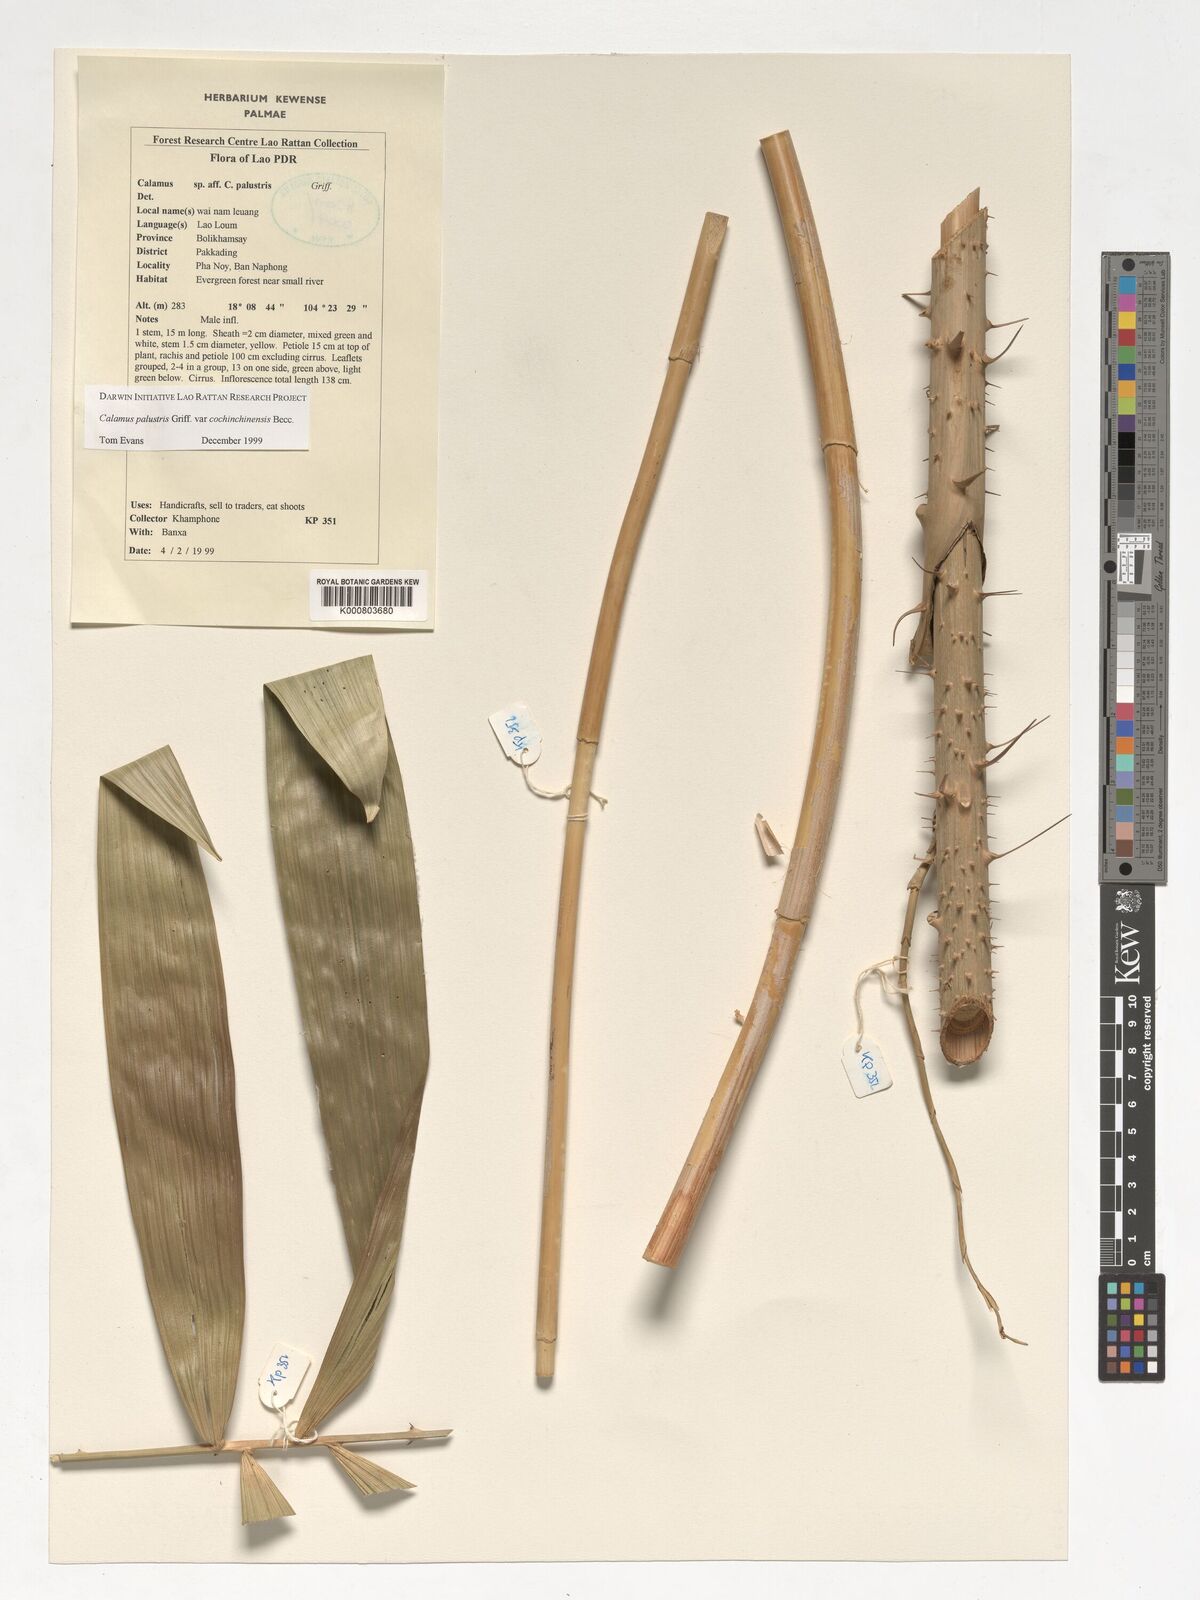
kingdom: Plantae
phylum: Tracheophyta
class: Liliopsida
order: Arecales
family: Arecaceae
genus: Calamus
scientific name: Calamus latifolius
